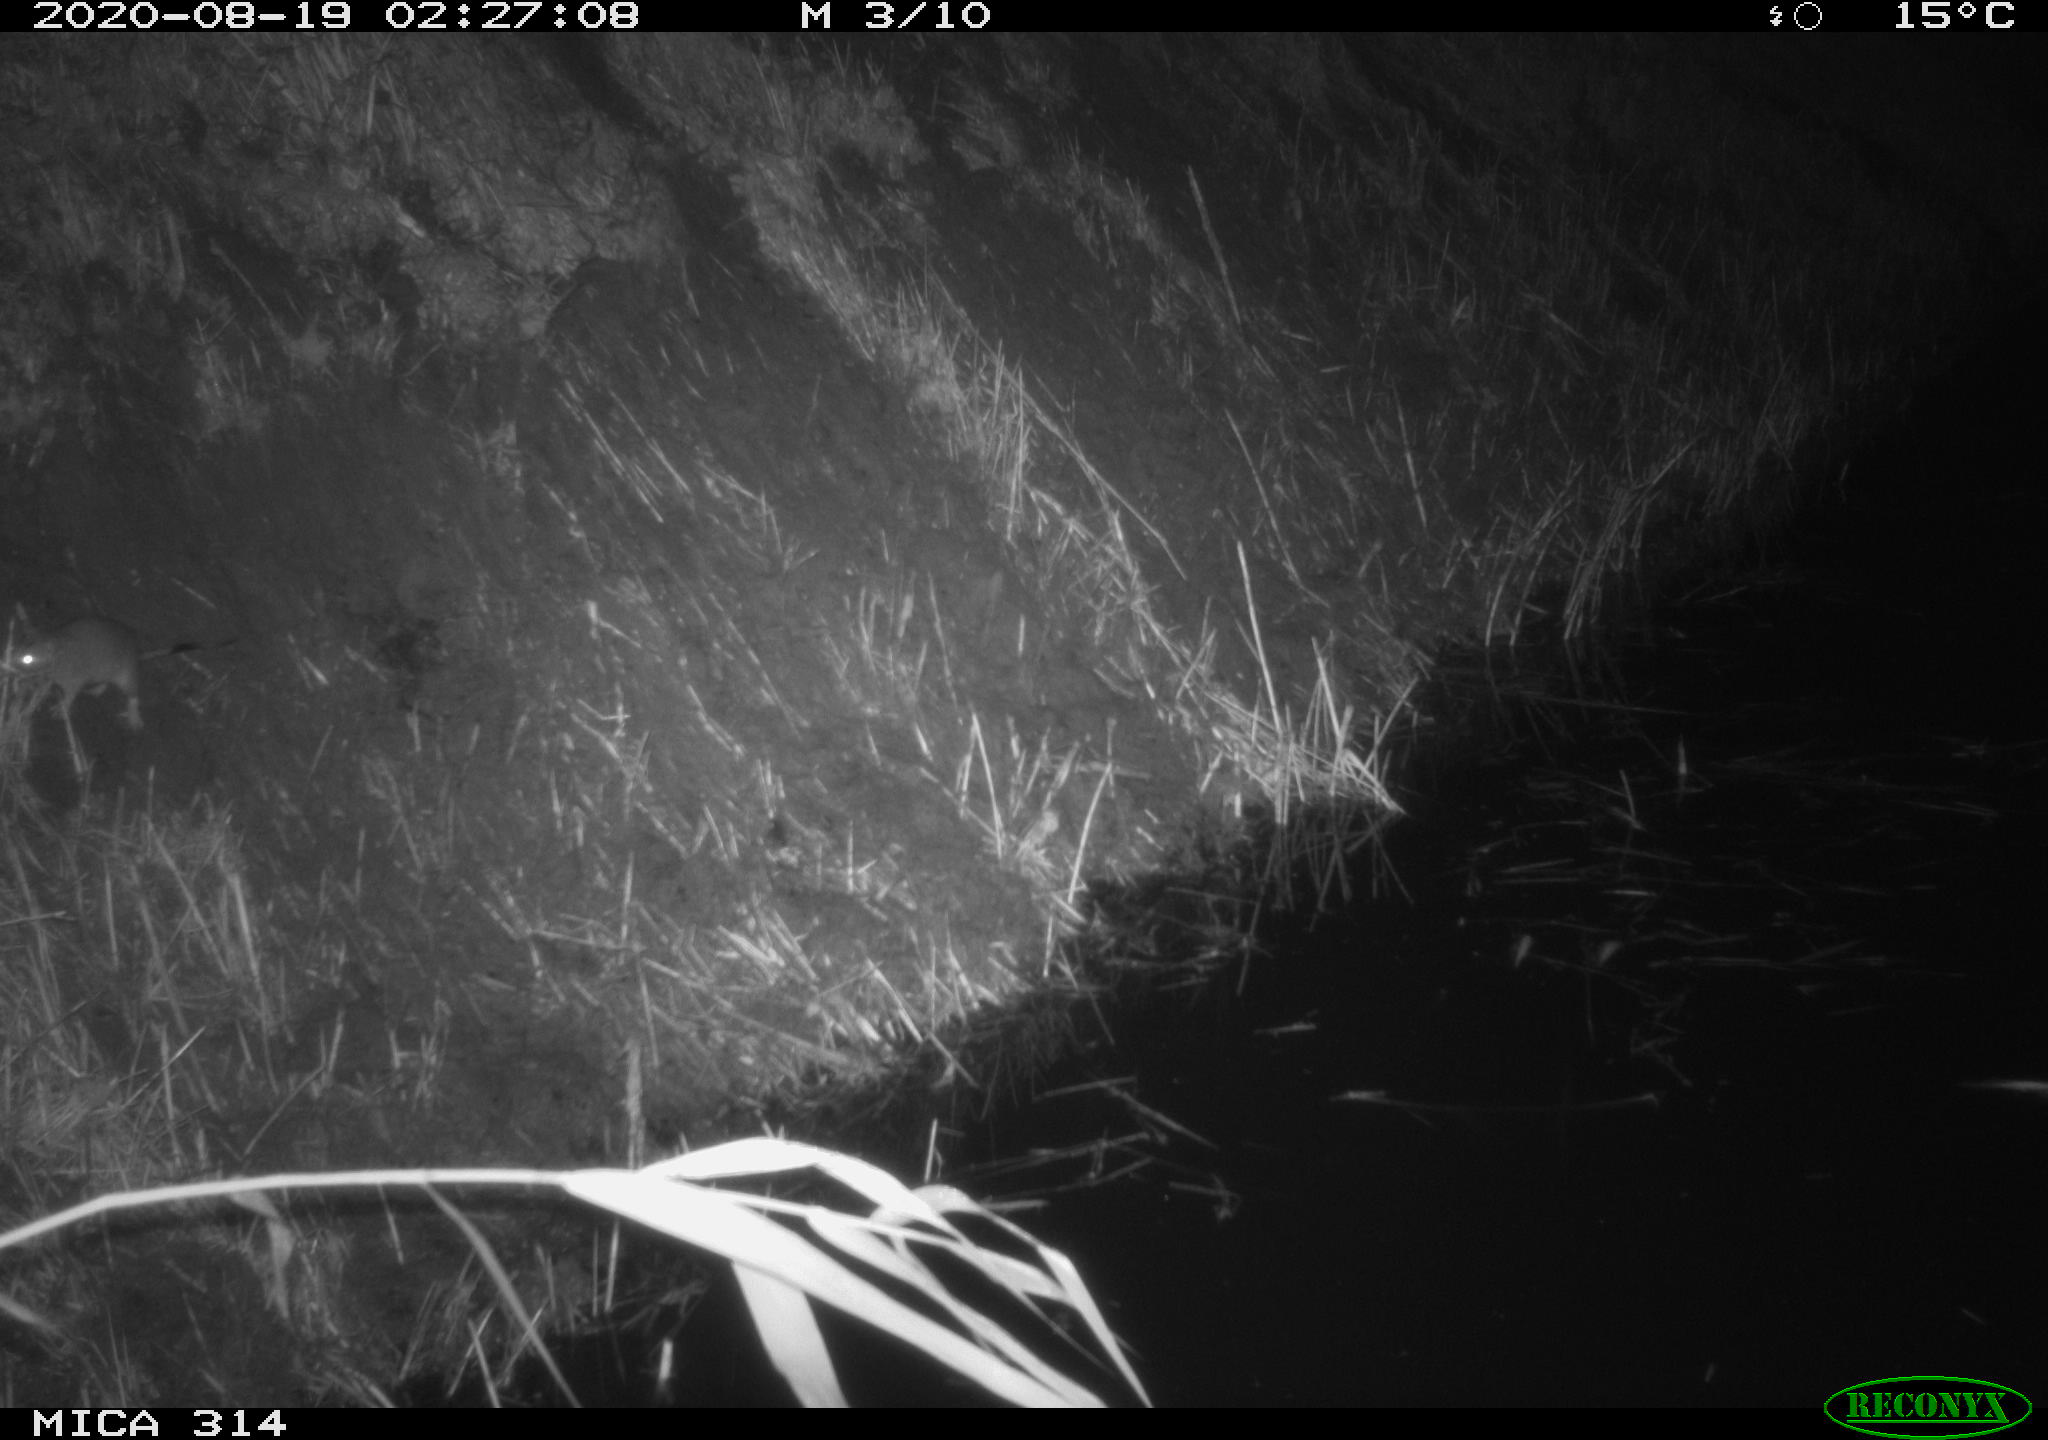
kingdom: Animalia
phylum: Chordata
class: Mammalia
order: Rodentia
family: Muridae
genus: Rattus
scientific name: Rattus norvegicus
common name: Brown rat
